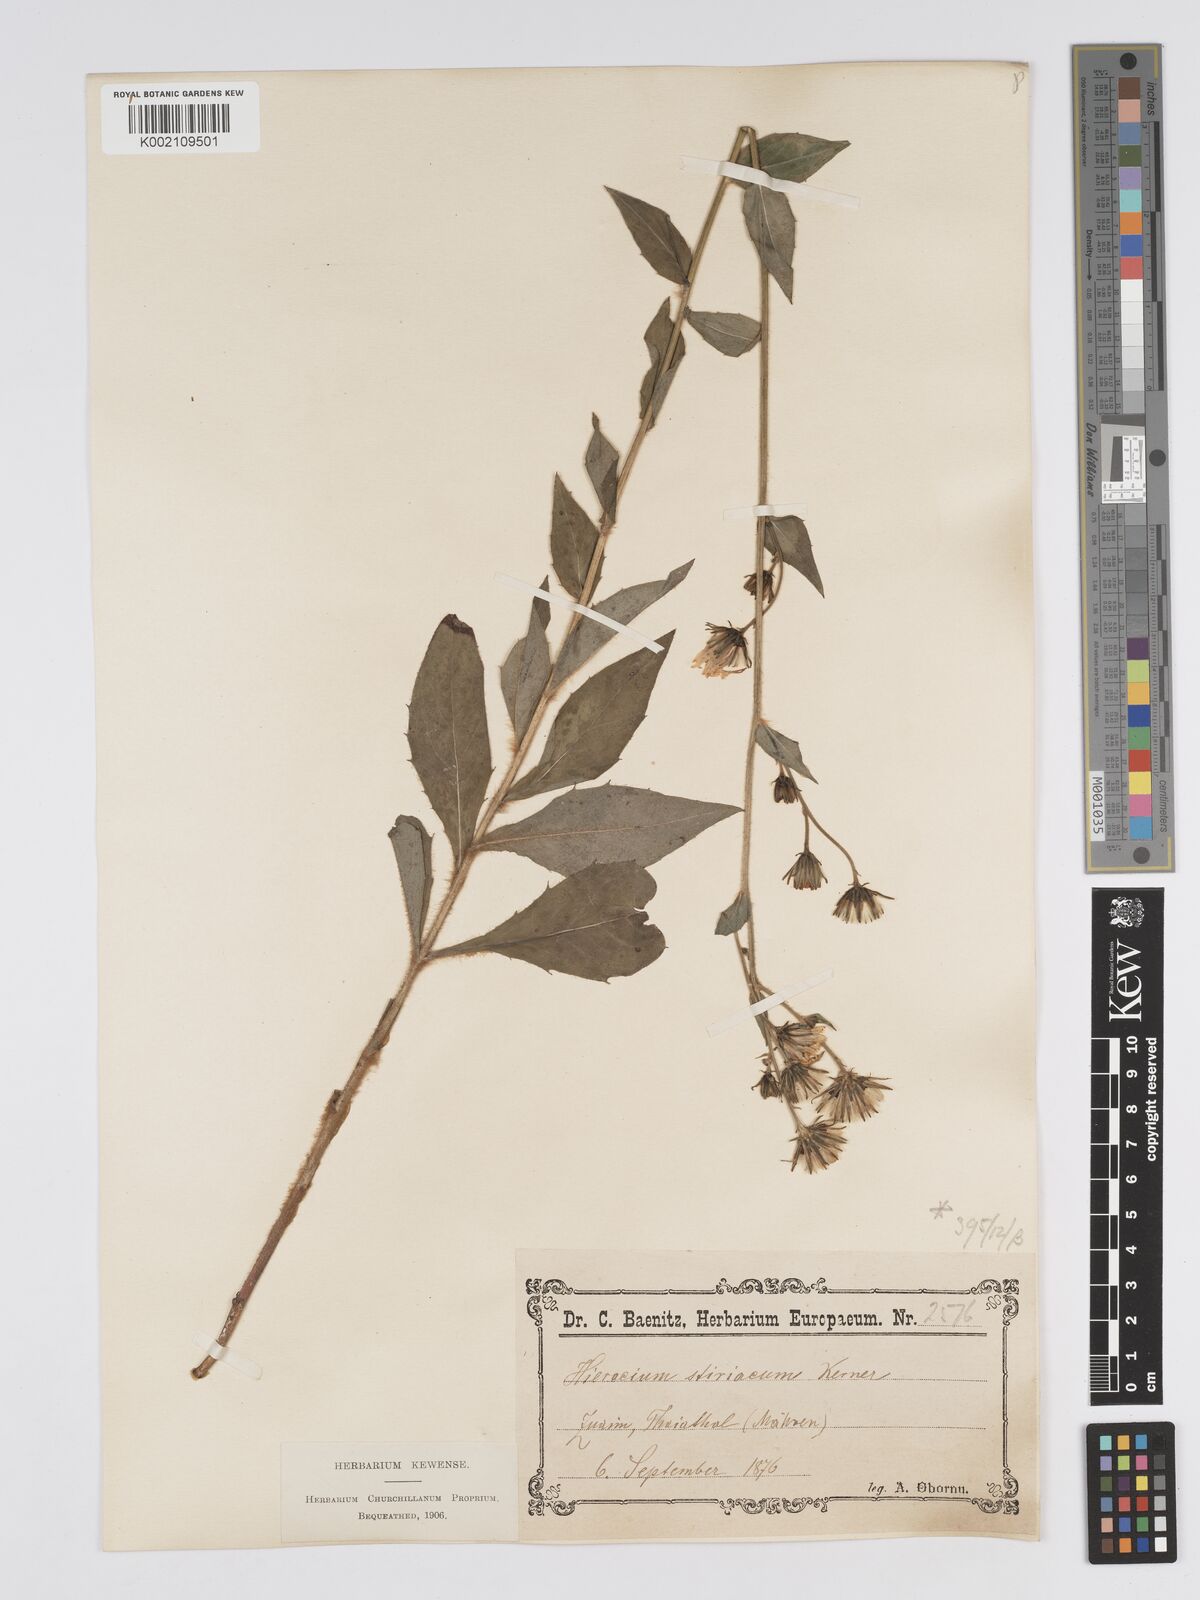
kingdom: Plantae
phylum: Tracheophyta
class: Magnoliopsida
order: Asterales
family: Asteraceae
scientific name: Asteraceae
